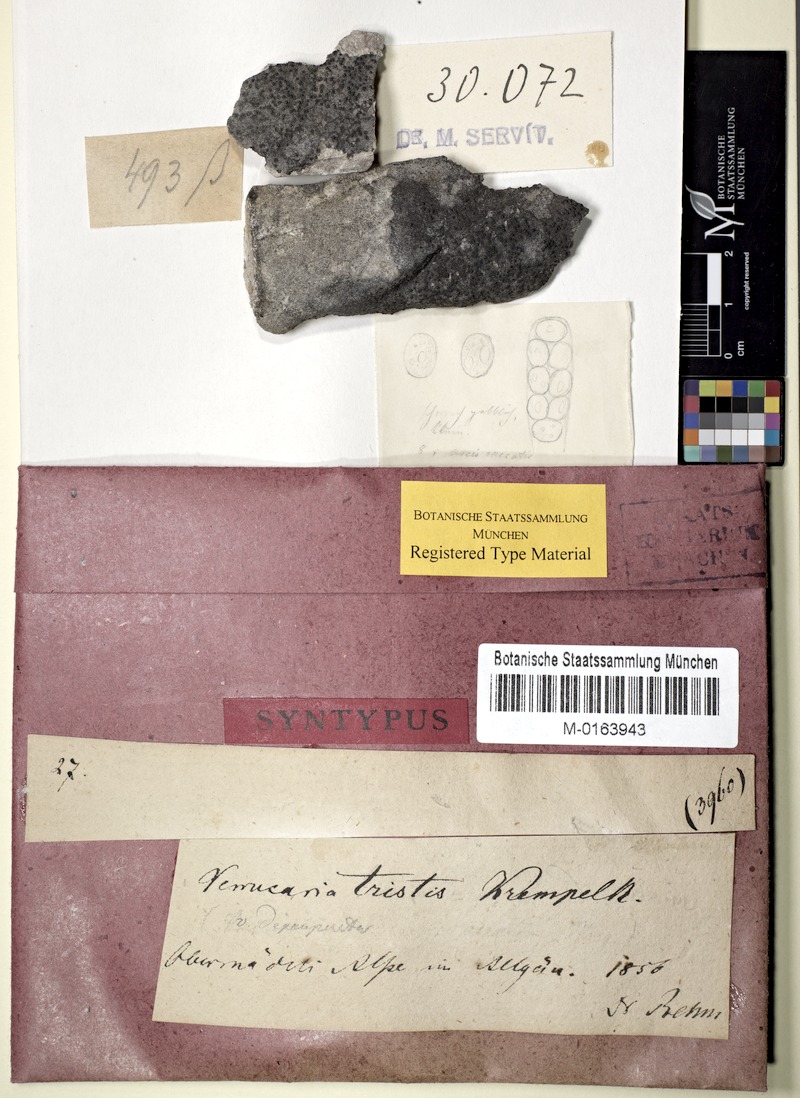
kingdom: Fungi
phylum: Ascomycota
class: Eurotiomycetes
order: Verrucariales
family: Verrucariaceae
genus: Verrucaria
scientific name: Verrucaria Lithocia tristis
